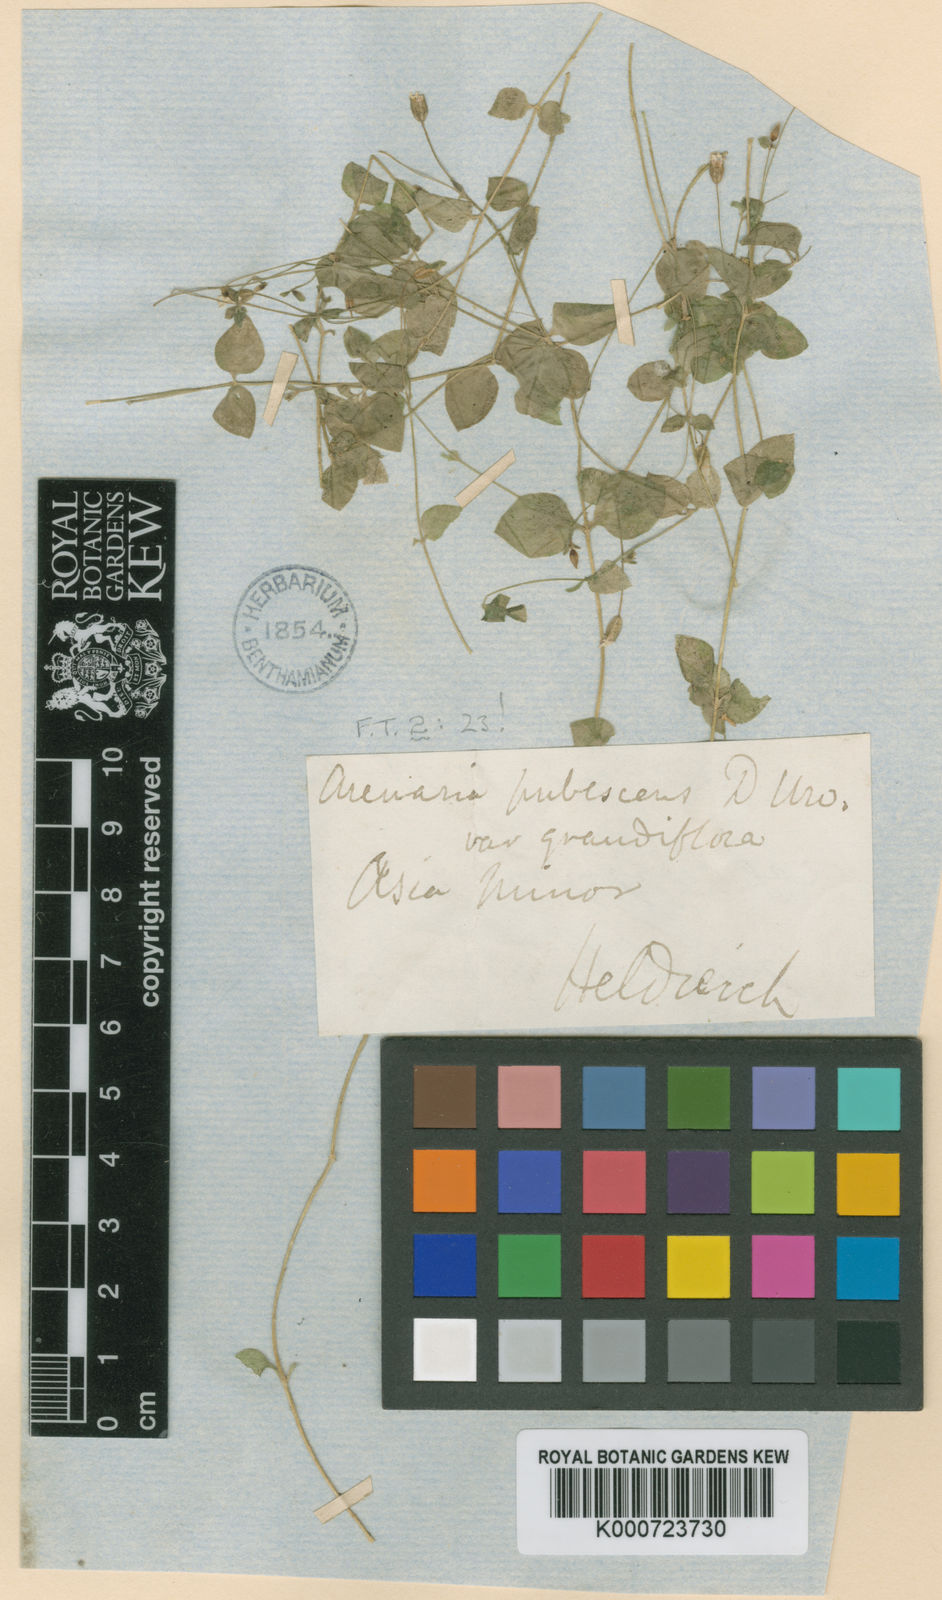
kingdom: Plantae
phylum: Tracheophyta
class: Magnoliopsida
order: Caryophyllales
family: Caryophyllaceae
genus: Arenaria
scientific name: Arenaria speluncarum
